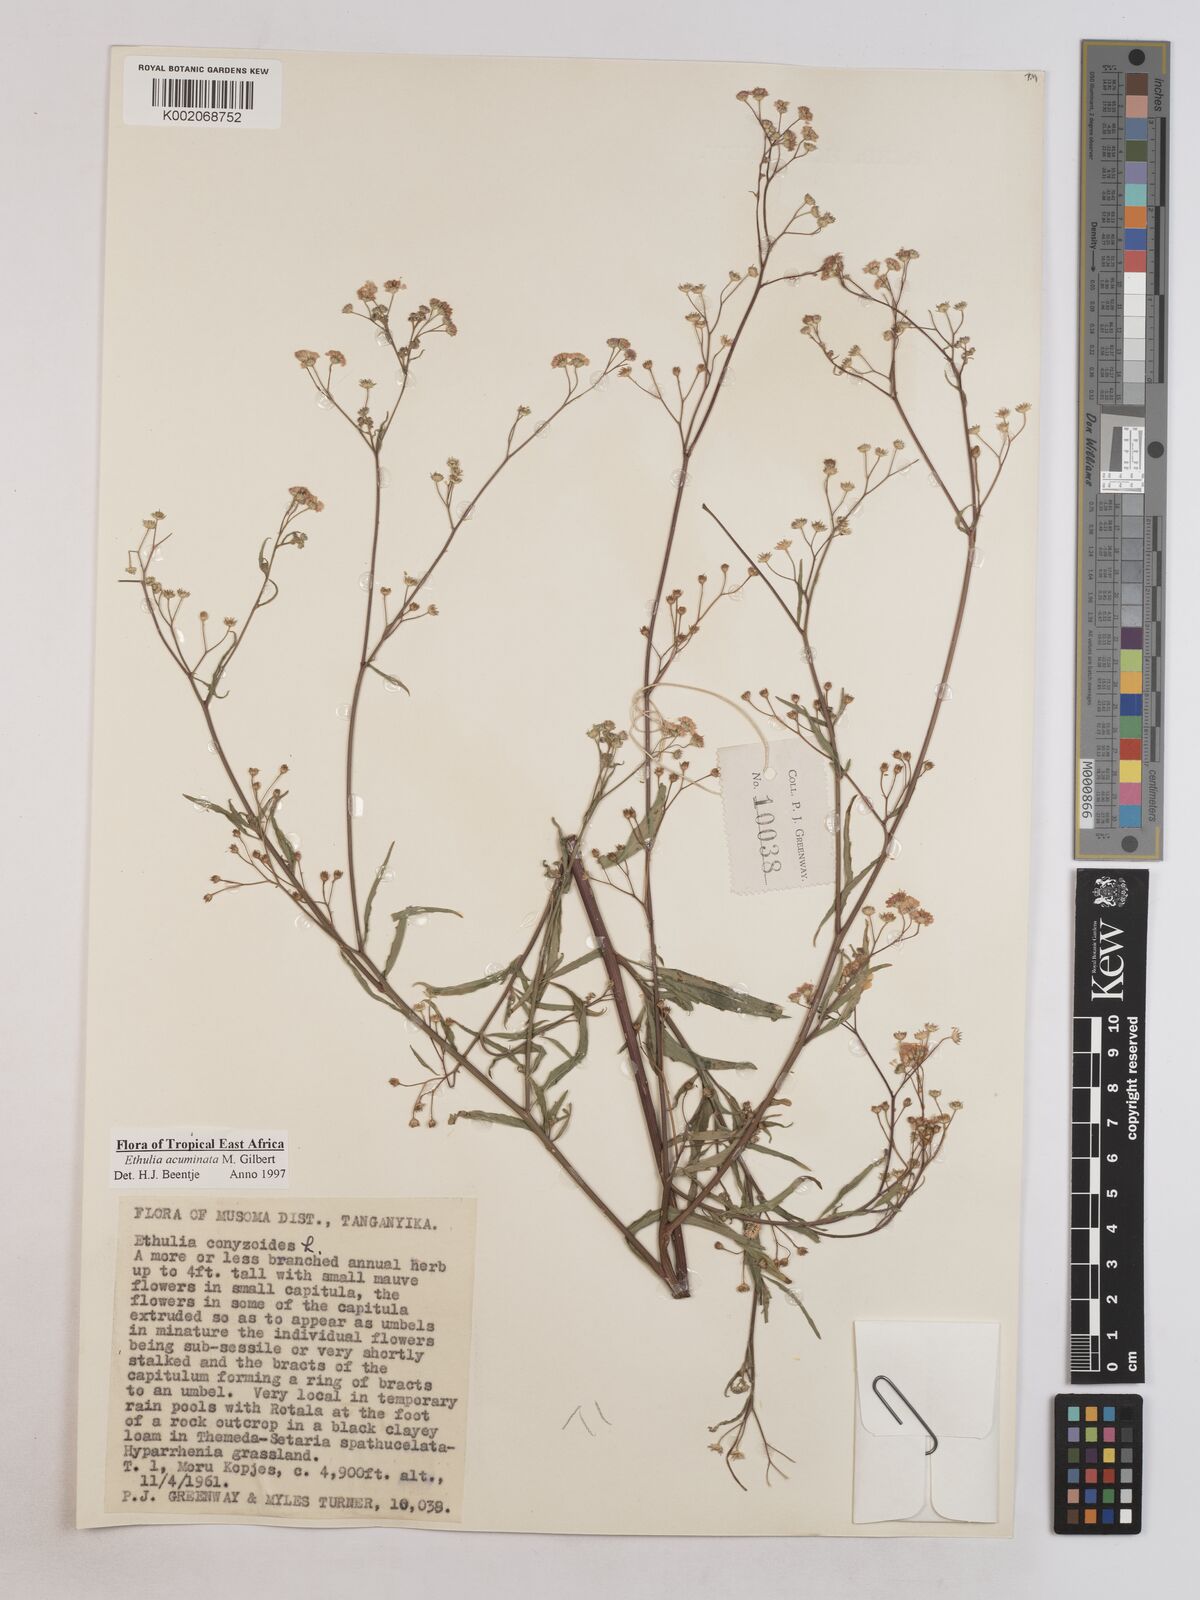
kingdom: Plantae
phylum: Tracheophyta
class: Magnoliopsida
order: Asterales
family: Asteraceae
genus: Ethulia
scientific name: Ethulia acuminata
